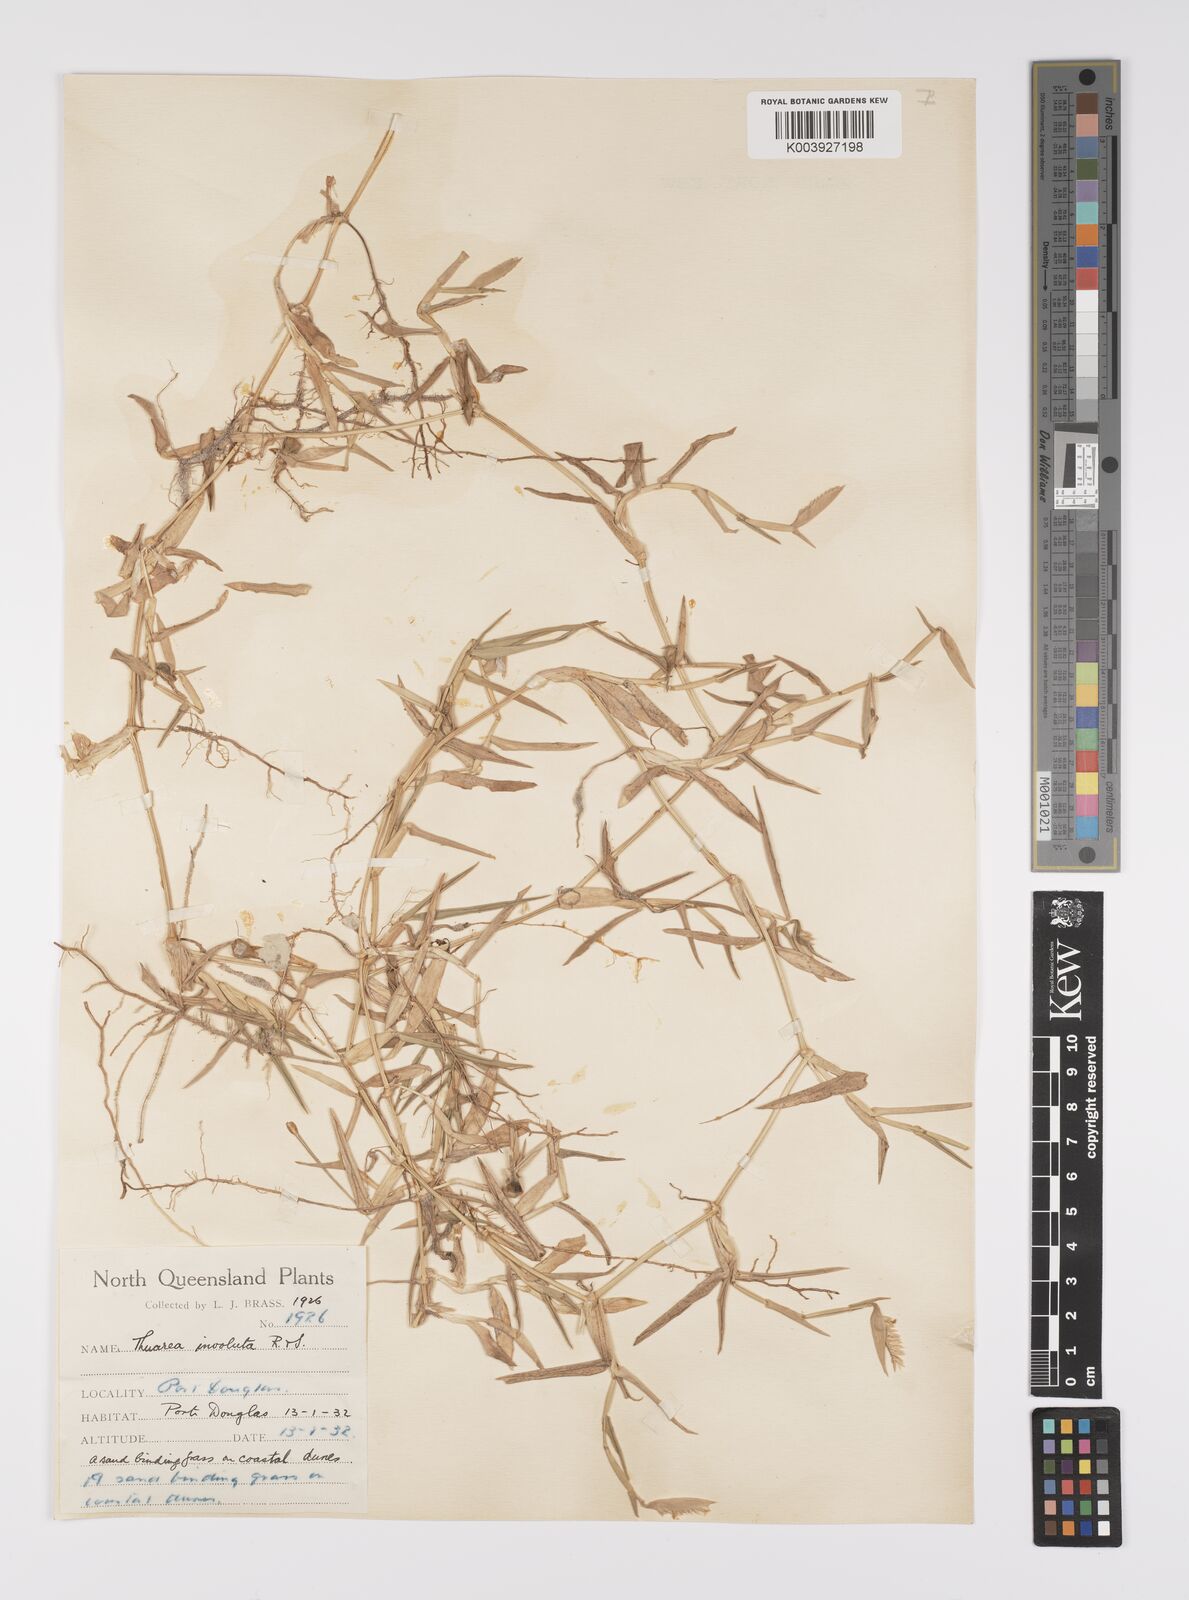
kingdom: Plantae
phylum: Tracheophyta
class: Liliopsida
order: Poales
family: Poaceae
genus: Thuarea
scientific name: Thuarea involuta
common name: Tropical beach grass
